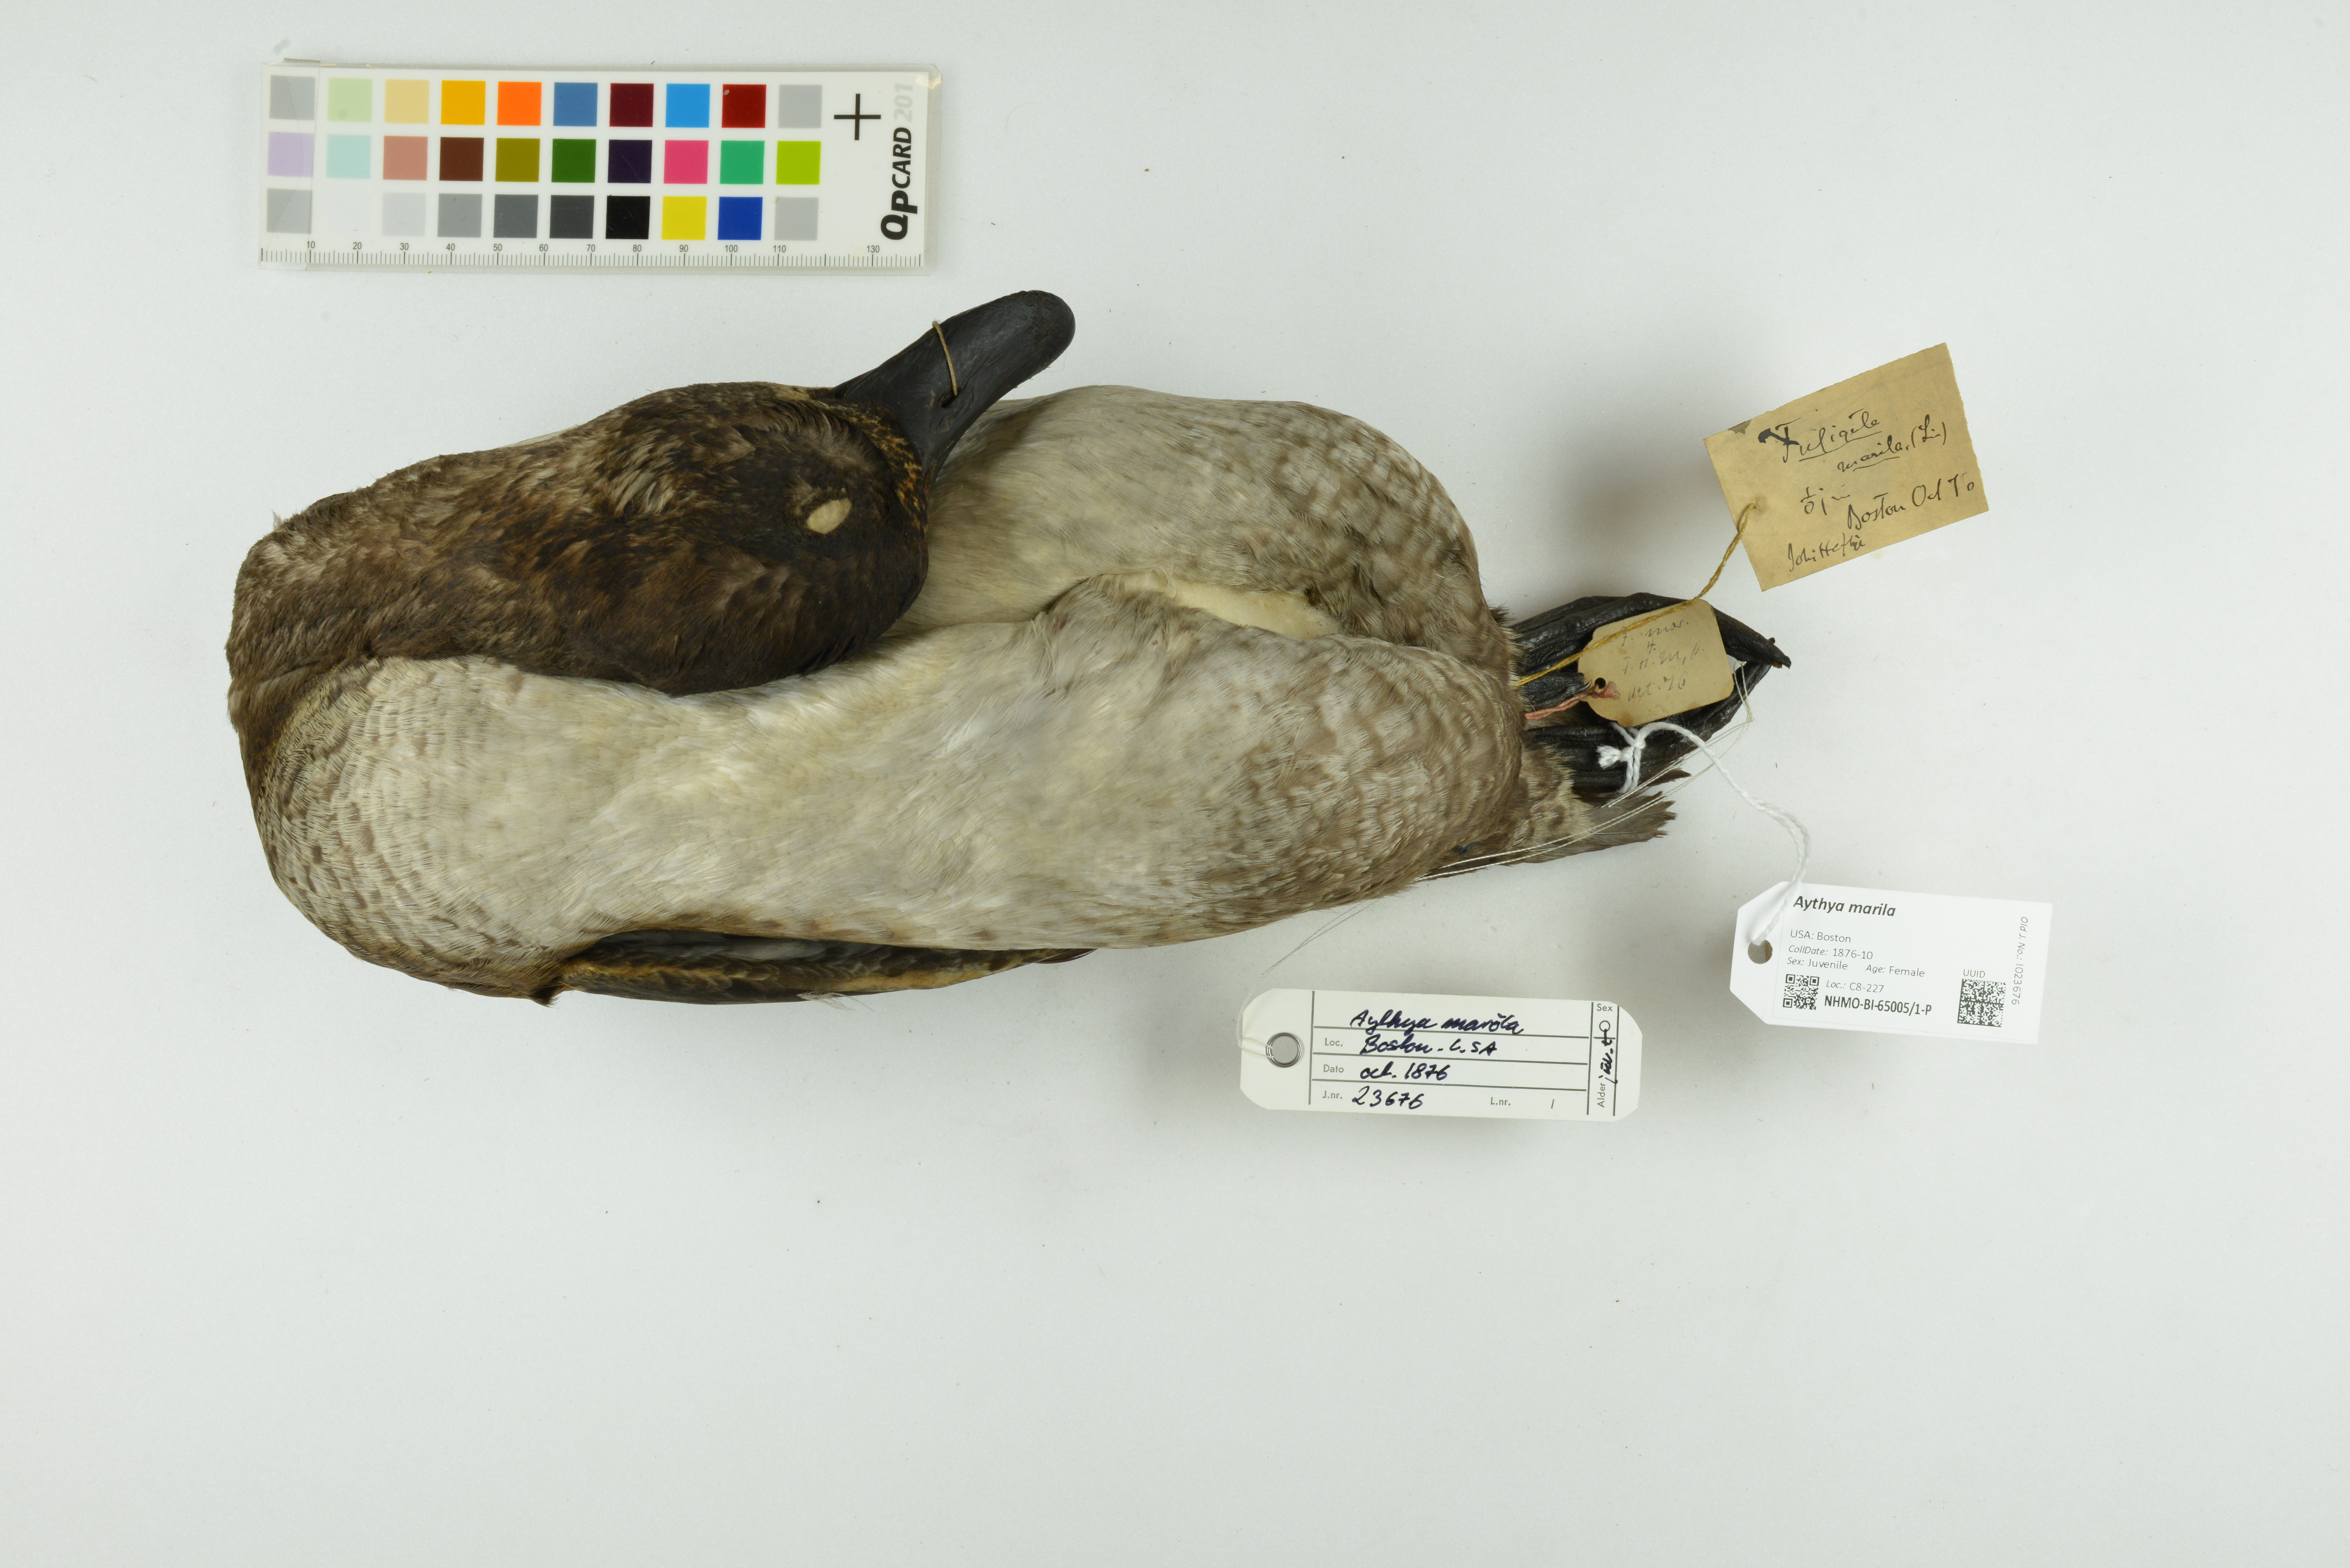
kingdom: Animalia
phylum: Chordata
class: Aves
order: Anseriformes
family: Anatidae
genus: Aythya
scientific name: Aythya marila
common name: Greater scaup
